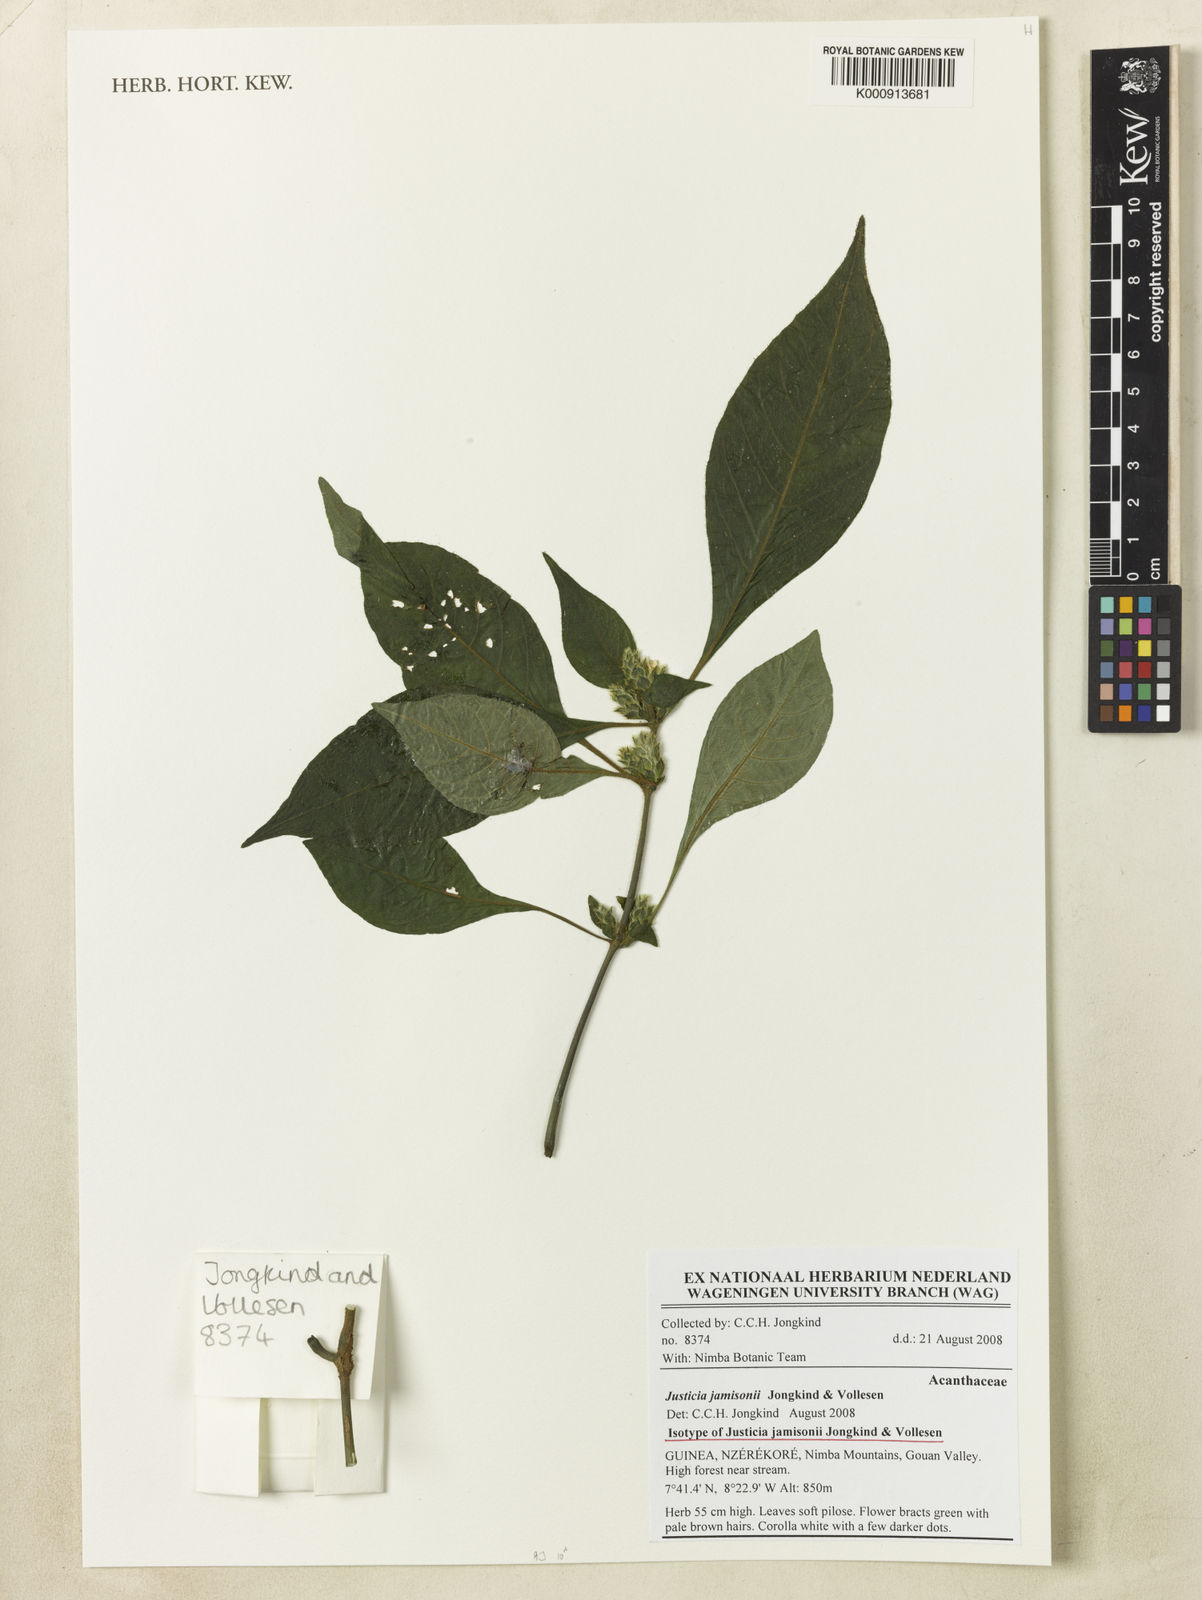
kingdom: Plantae
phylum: Tracheophyta
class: Magnoliopsida
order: Lamiales
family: Acanthaceae
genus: Justicia
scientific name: Justicia jamisonii
